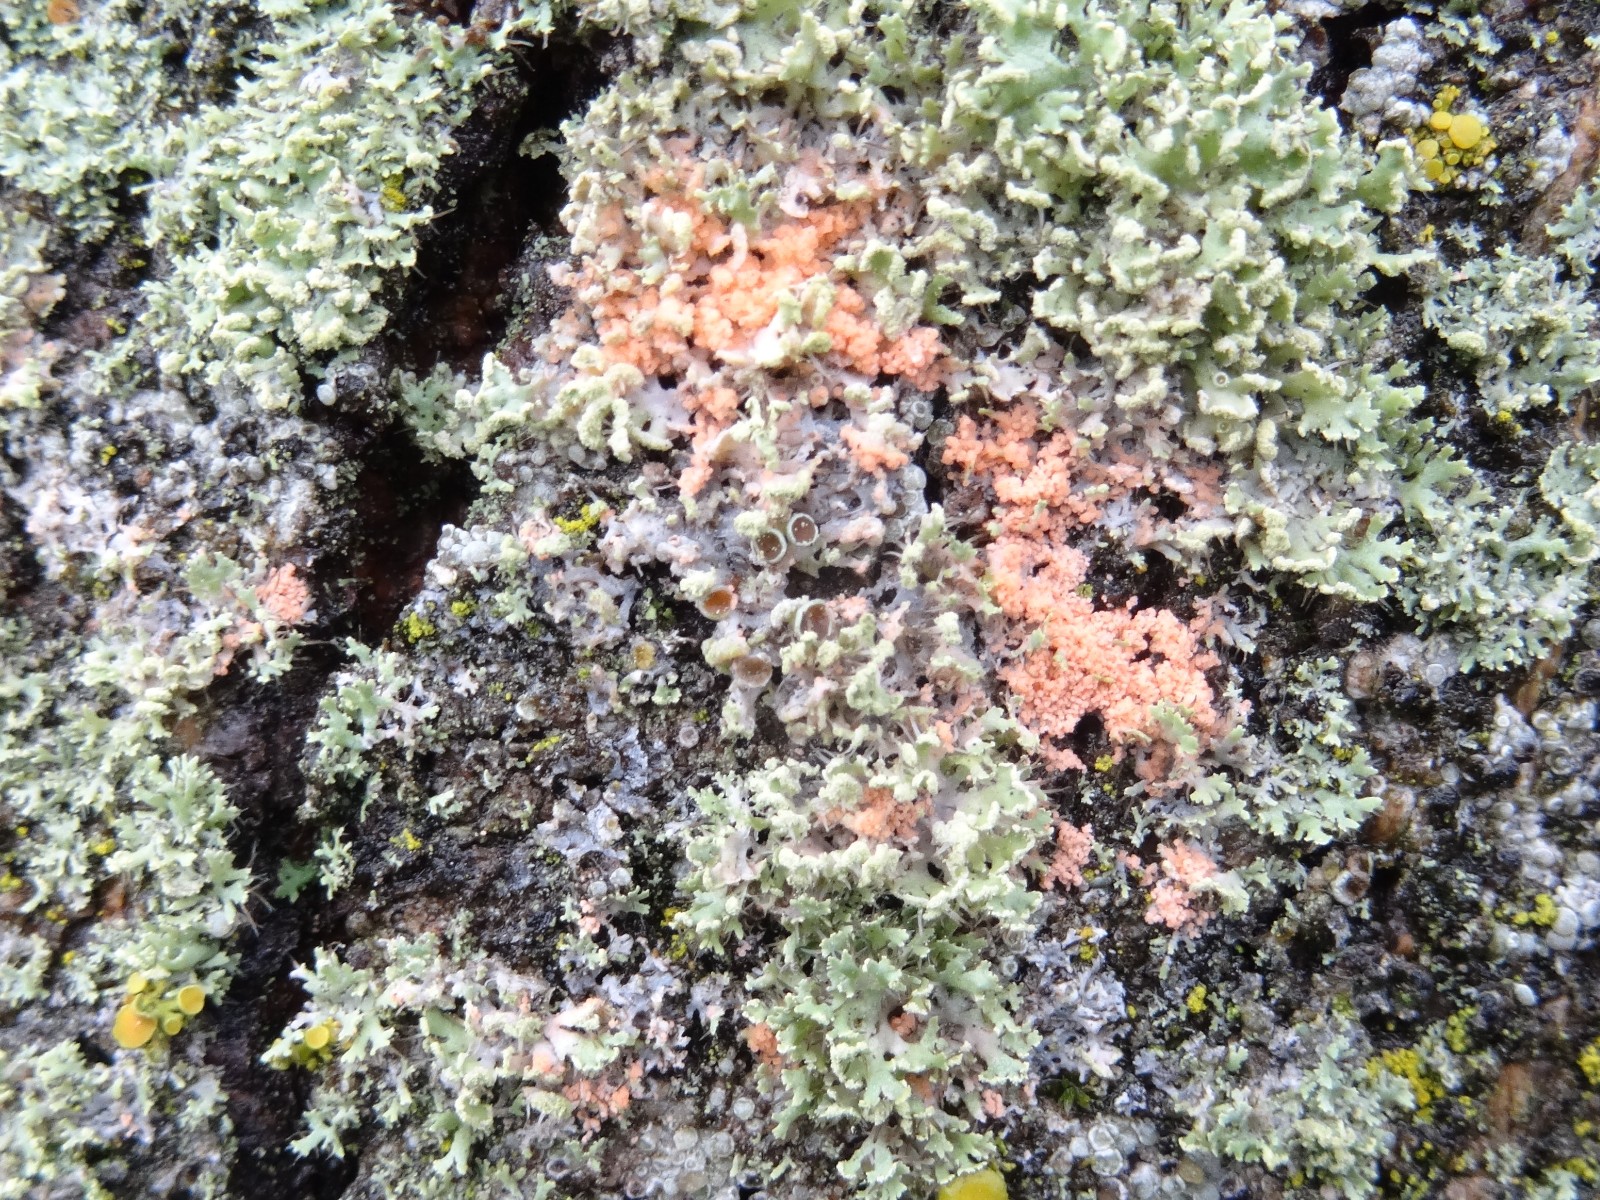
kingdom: Fungi
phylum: Basidiomycota
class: Agaricomycetes
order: Corticiales
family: Corticiaceae
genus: Erythricium
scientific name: Erythricium aurantiacum
